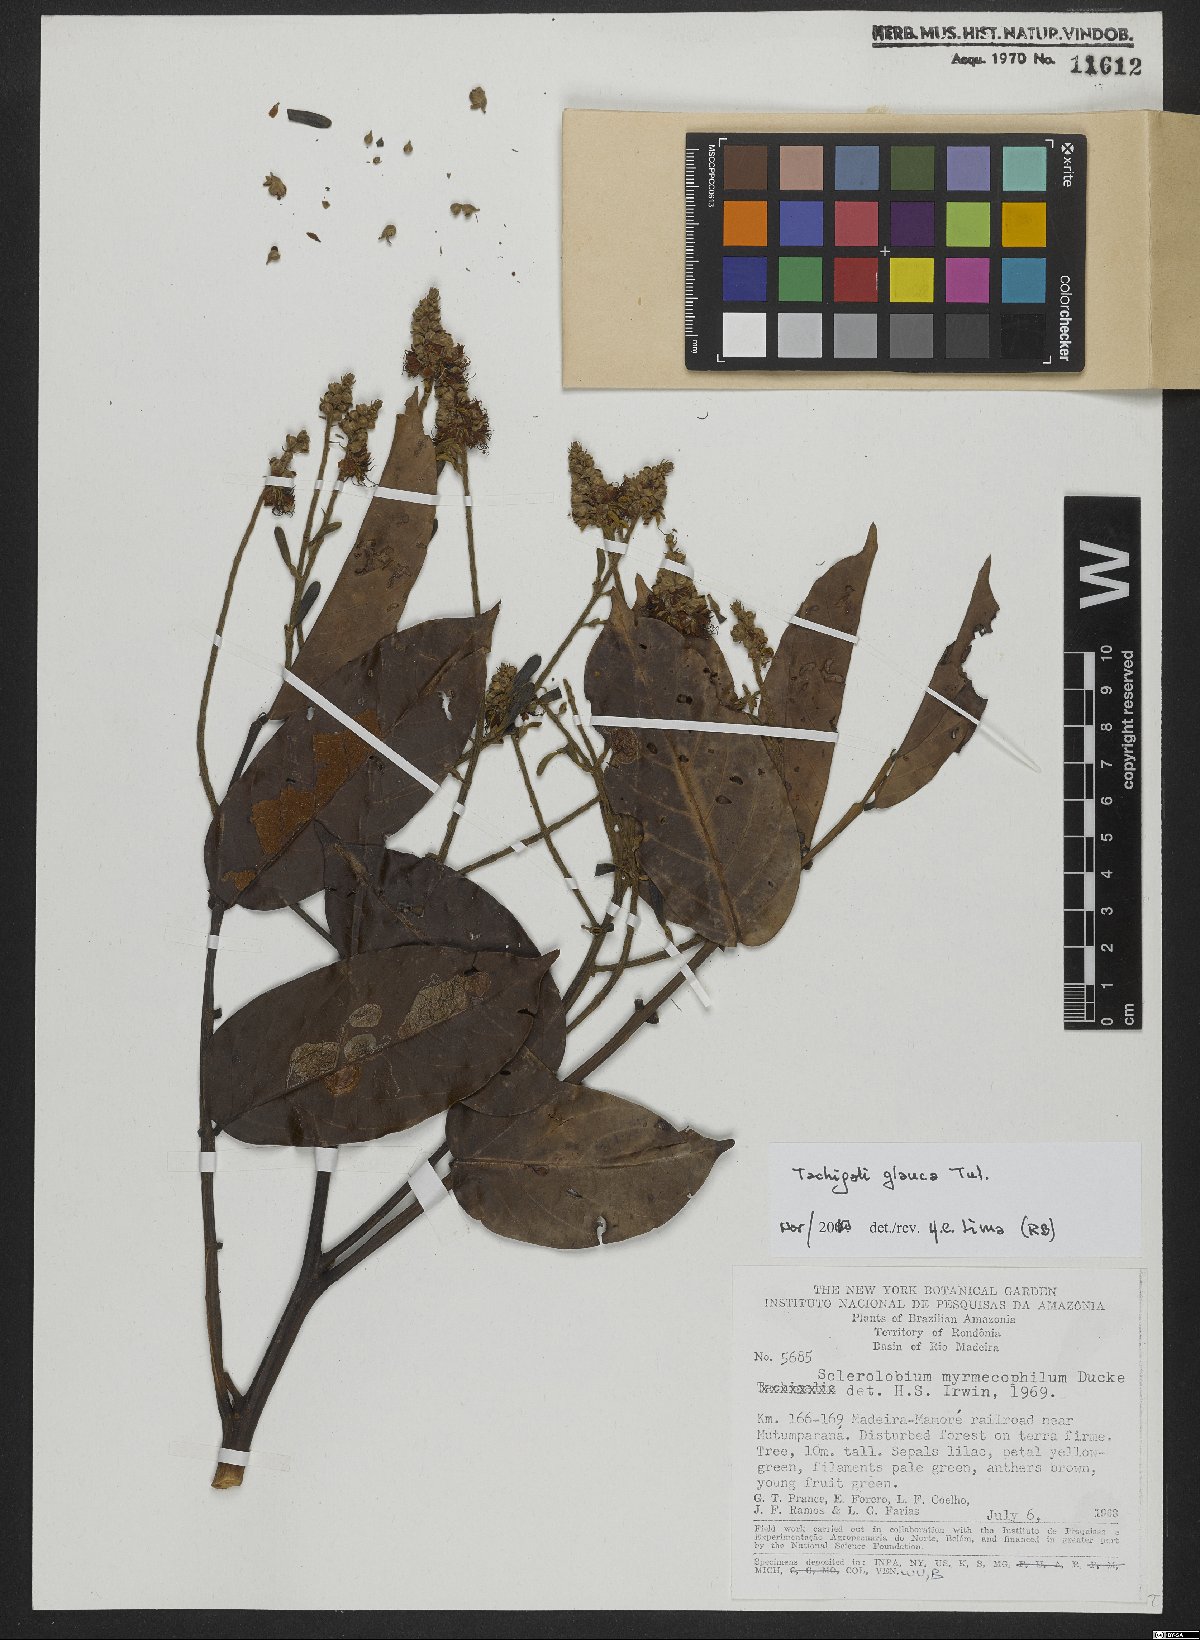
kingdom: Plantae
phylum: Tracheophyta
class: Magnoliopsida
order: Fabales
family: Fabaceae
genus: Tachigali
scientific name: Tachigali glauca
